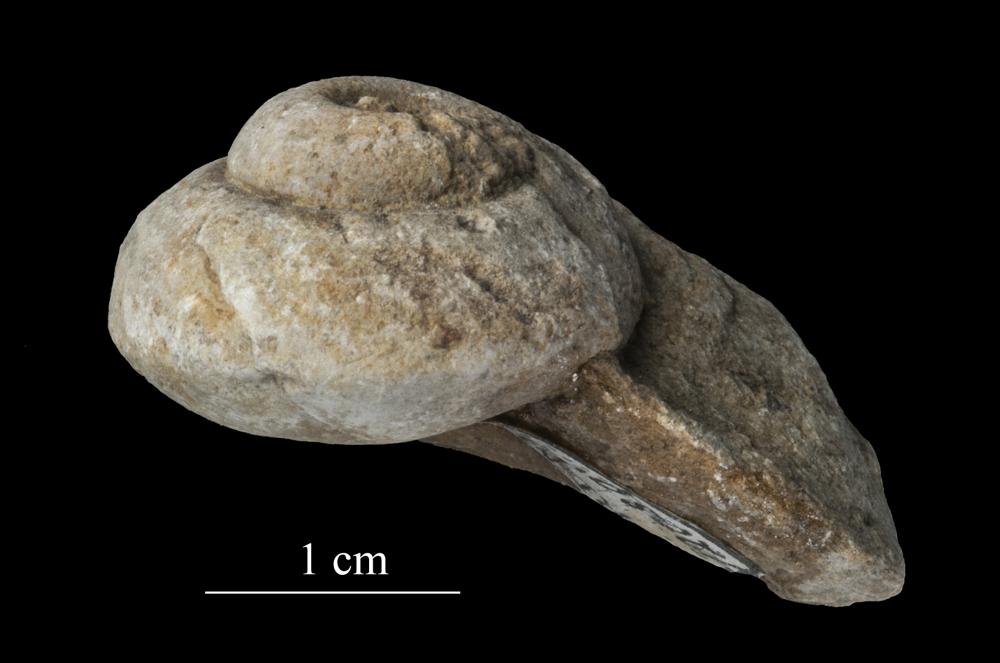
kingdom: Animalia
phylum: Mollusca
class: Gastropoda
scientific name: Gastropoda
